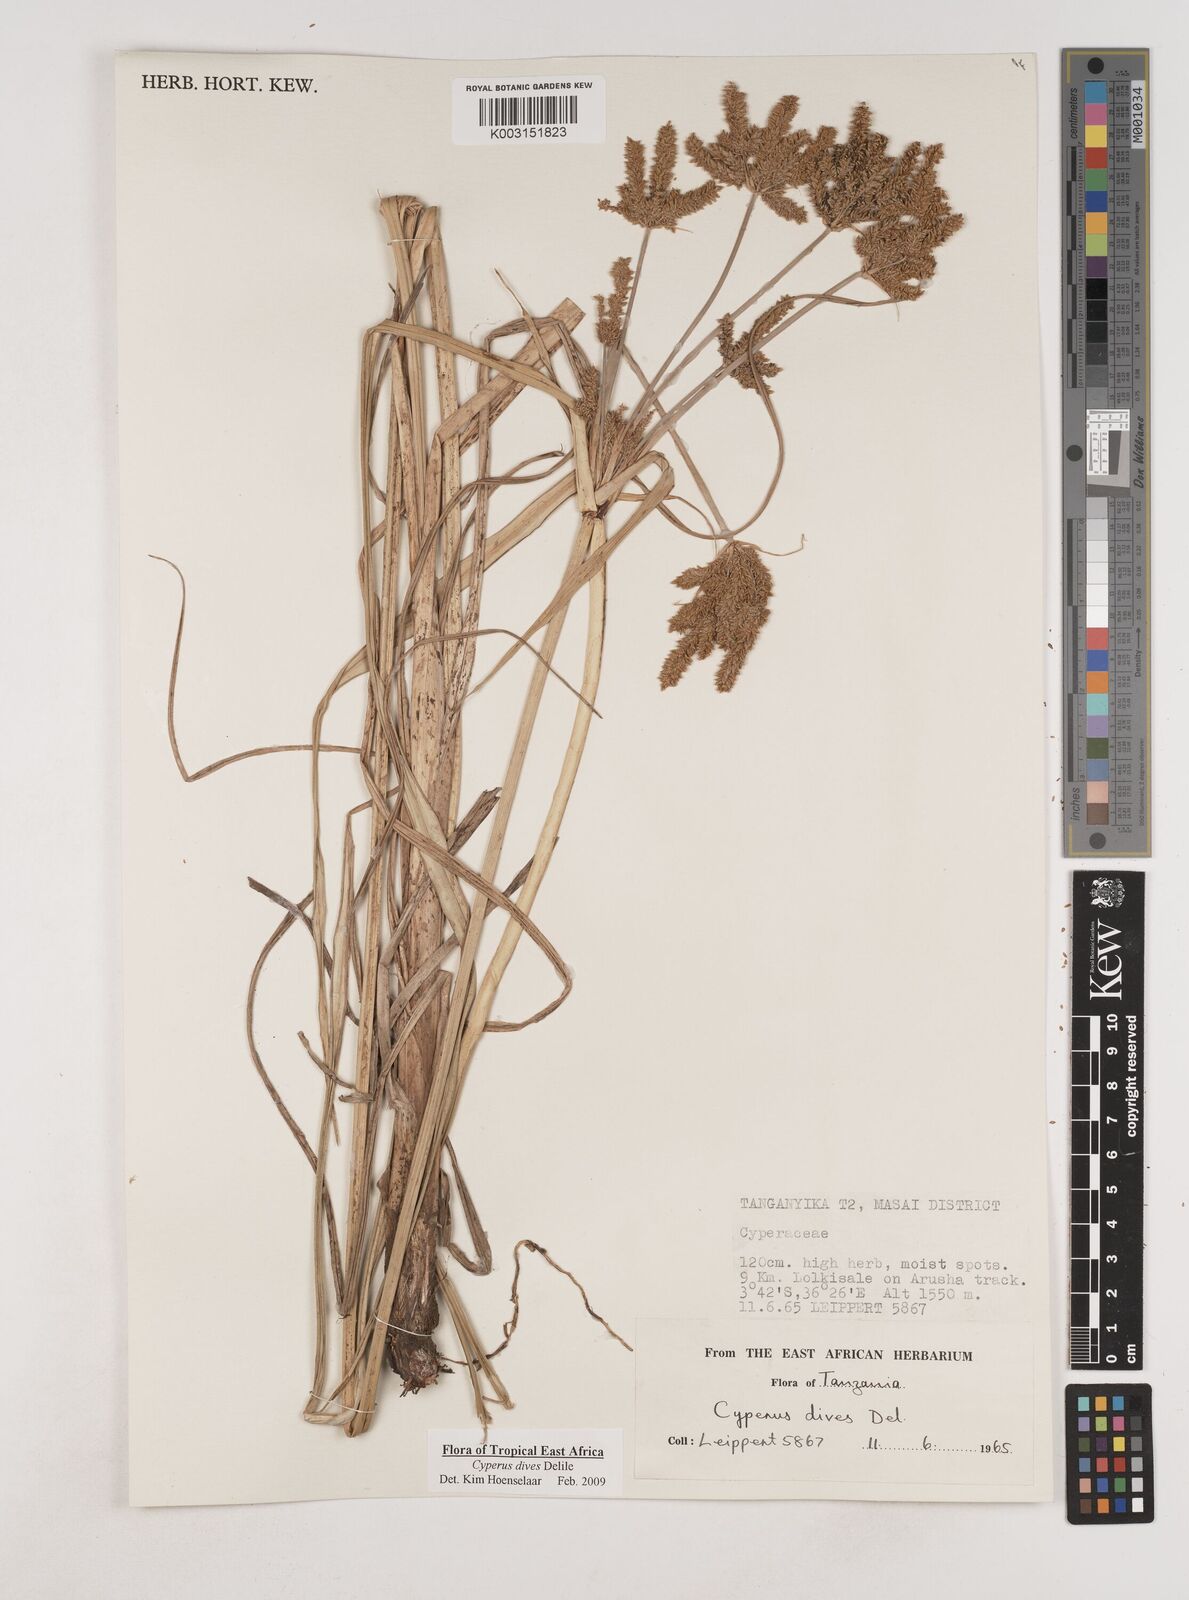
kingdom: Plantae
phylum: Tracheophyta
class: Liliopsida
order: Poales
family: Cyperaceae
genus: Cyperus
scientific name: Cyperus
